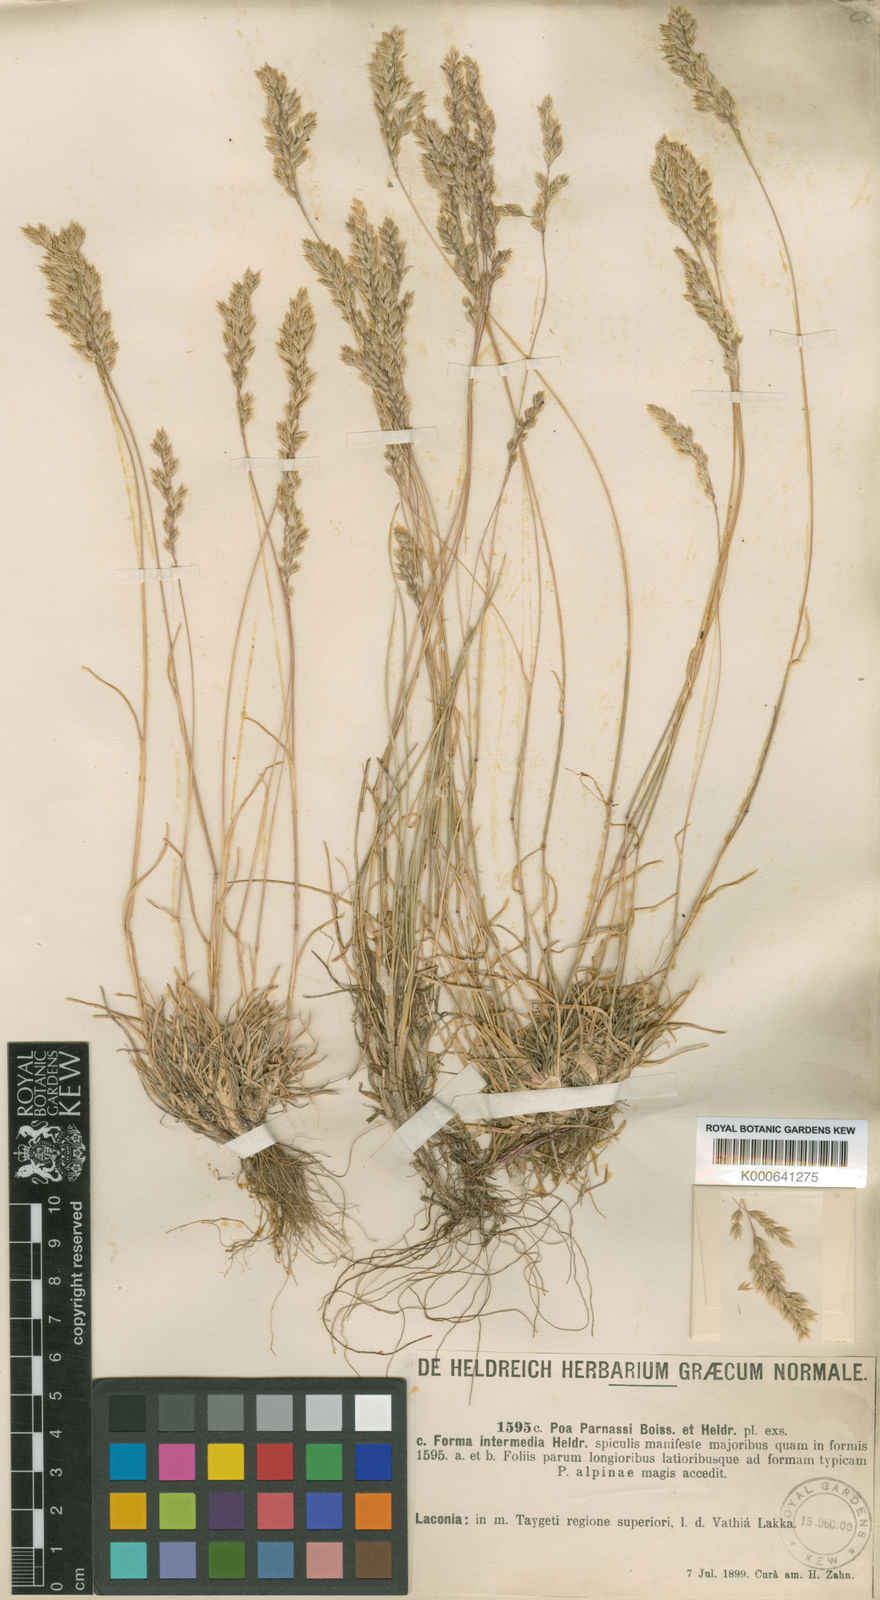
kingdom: Plantae
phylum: Tracheophyta
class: Liliopsida
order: Poales
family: Poaceae
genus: Briza
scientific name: Briza media
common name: Quaking grass
